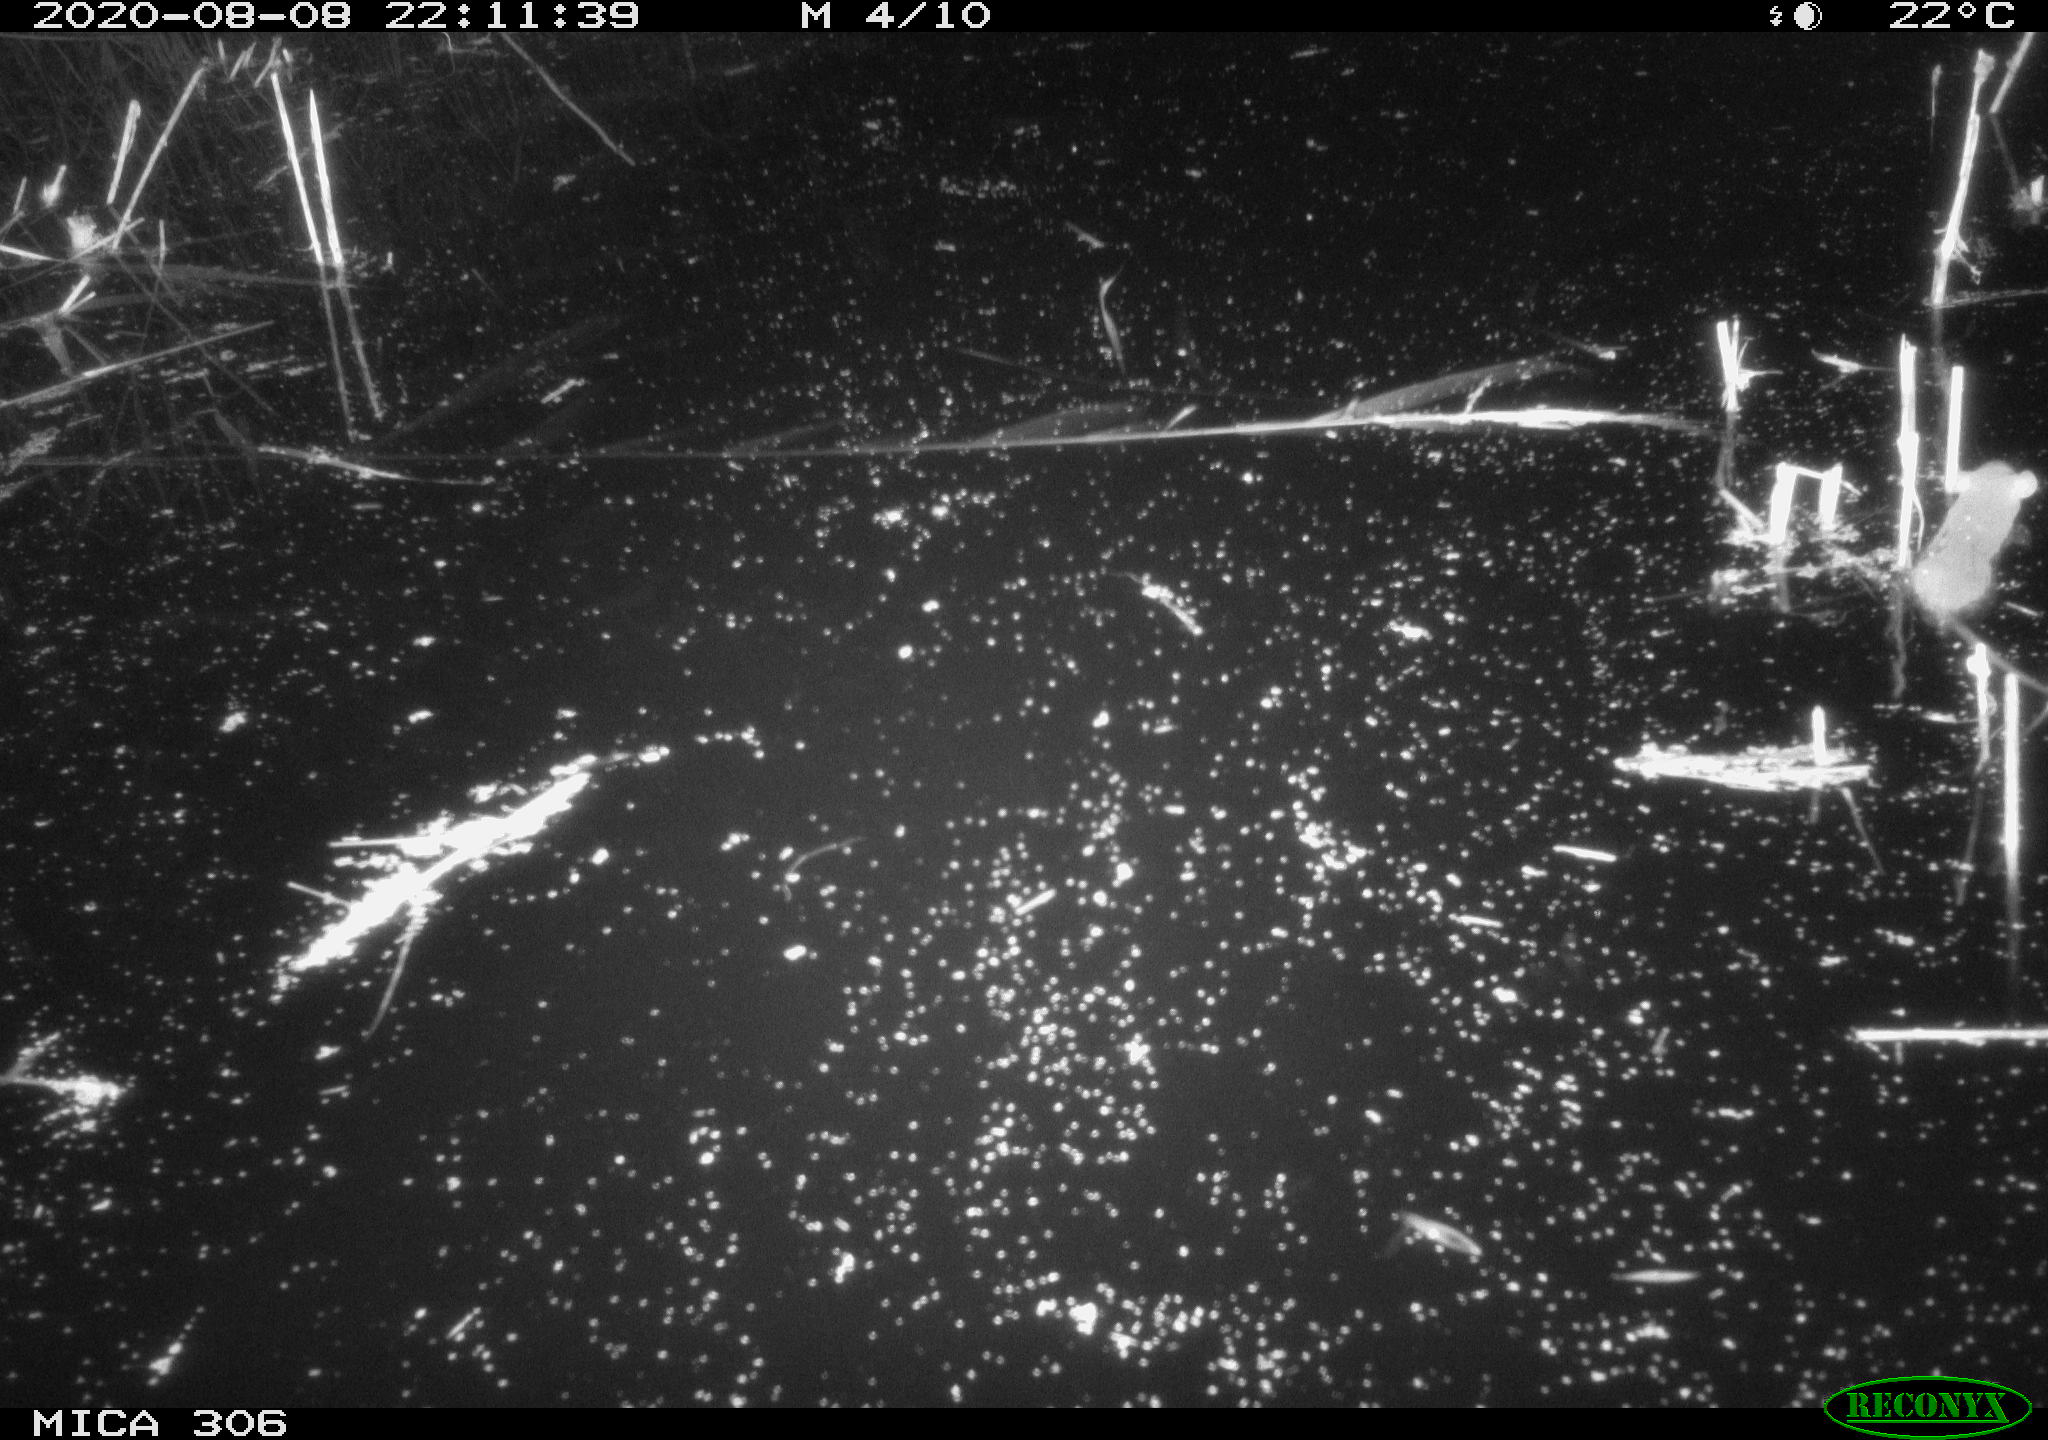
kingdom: Animalia
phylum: Chordata
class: Mammalia
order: Rodentia
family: Muridae
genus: Rattus
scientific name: Rattus norvegicus
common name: Brown rat
